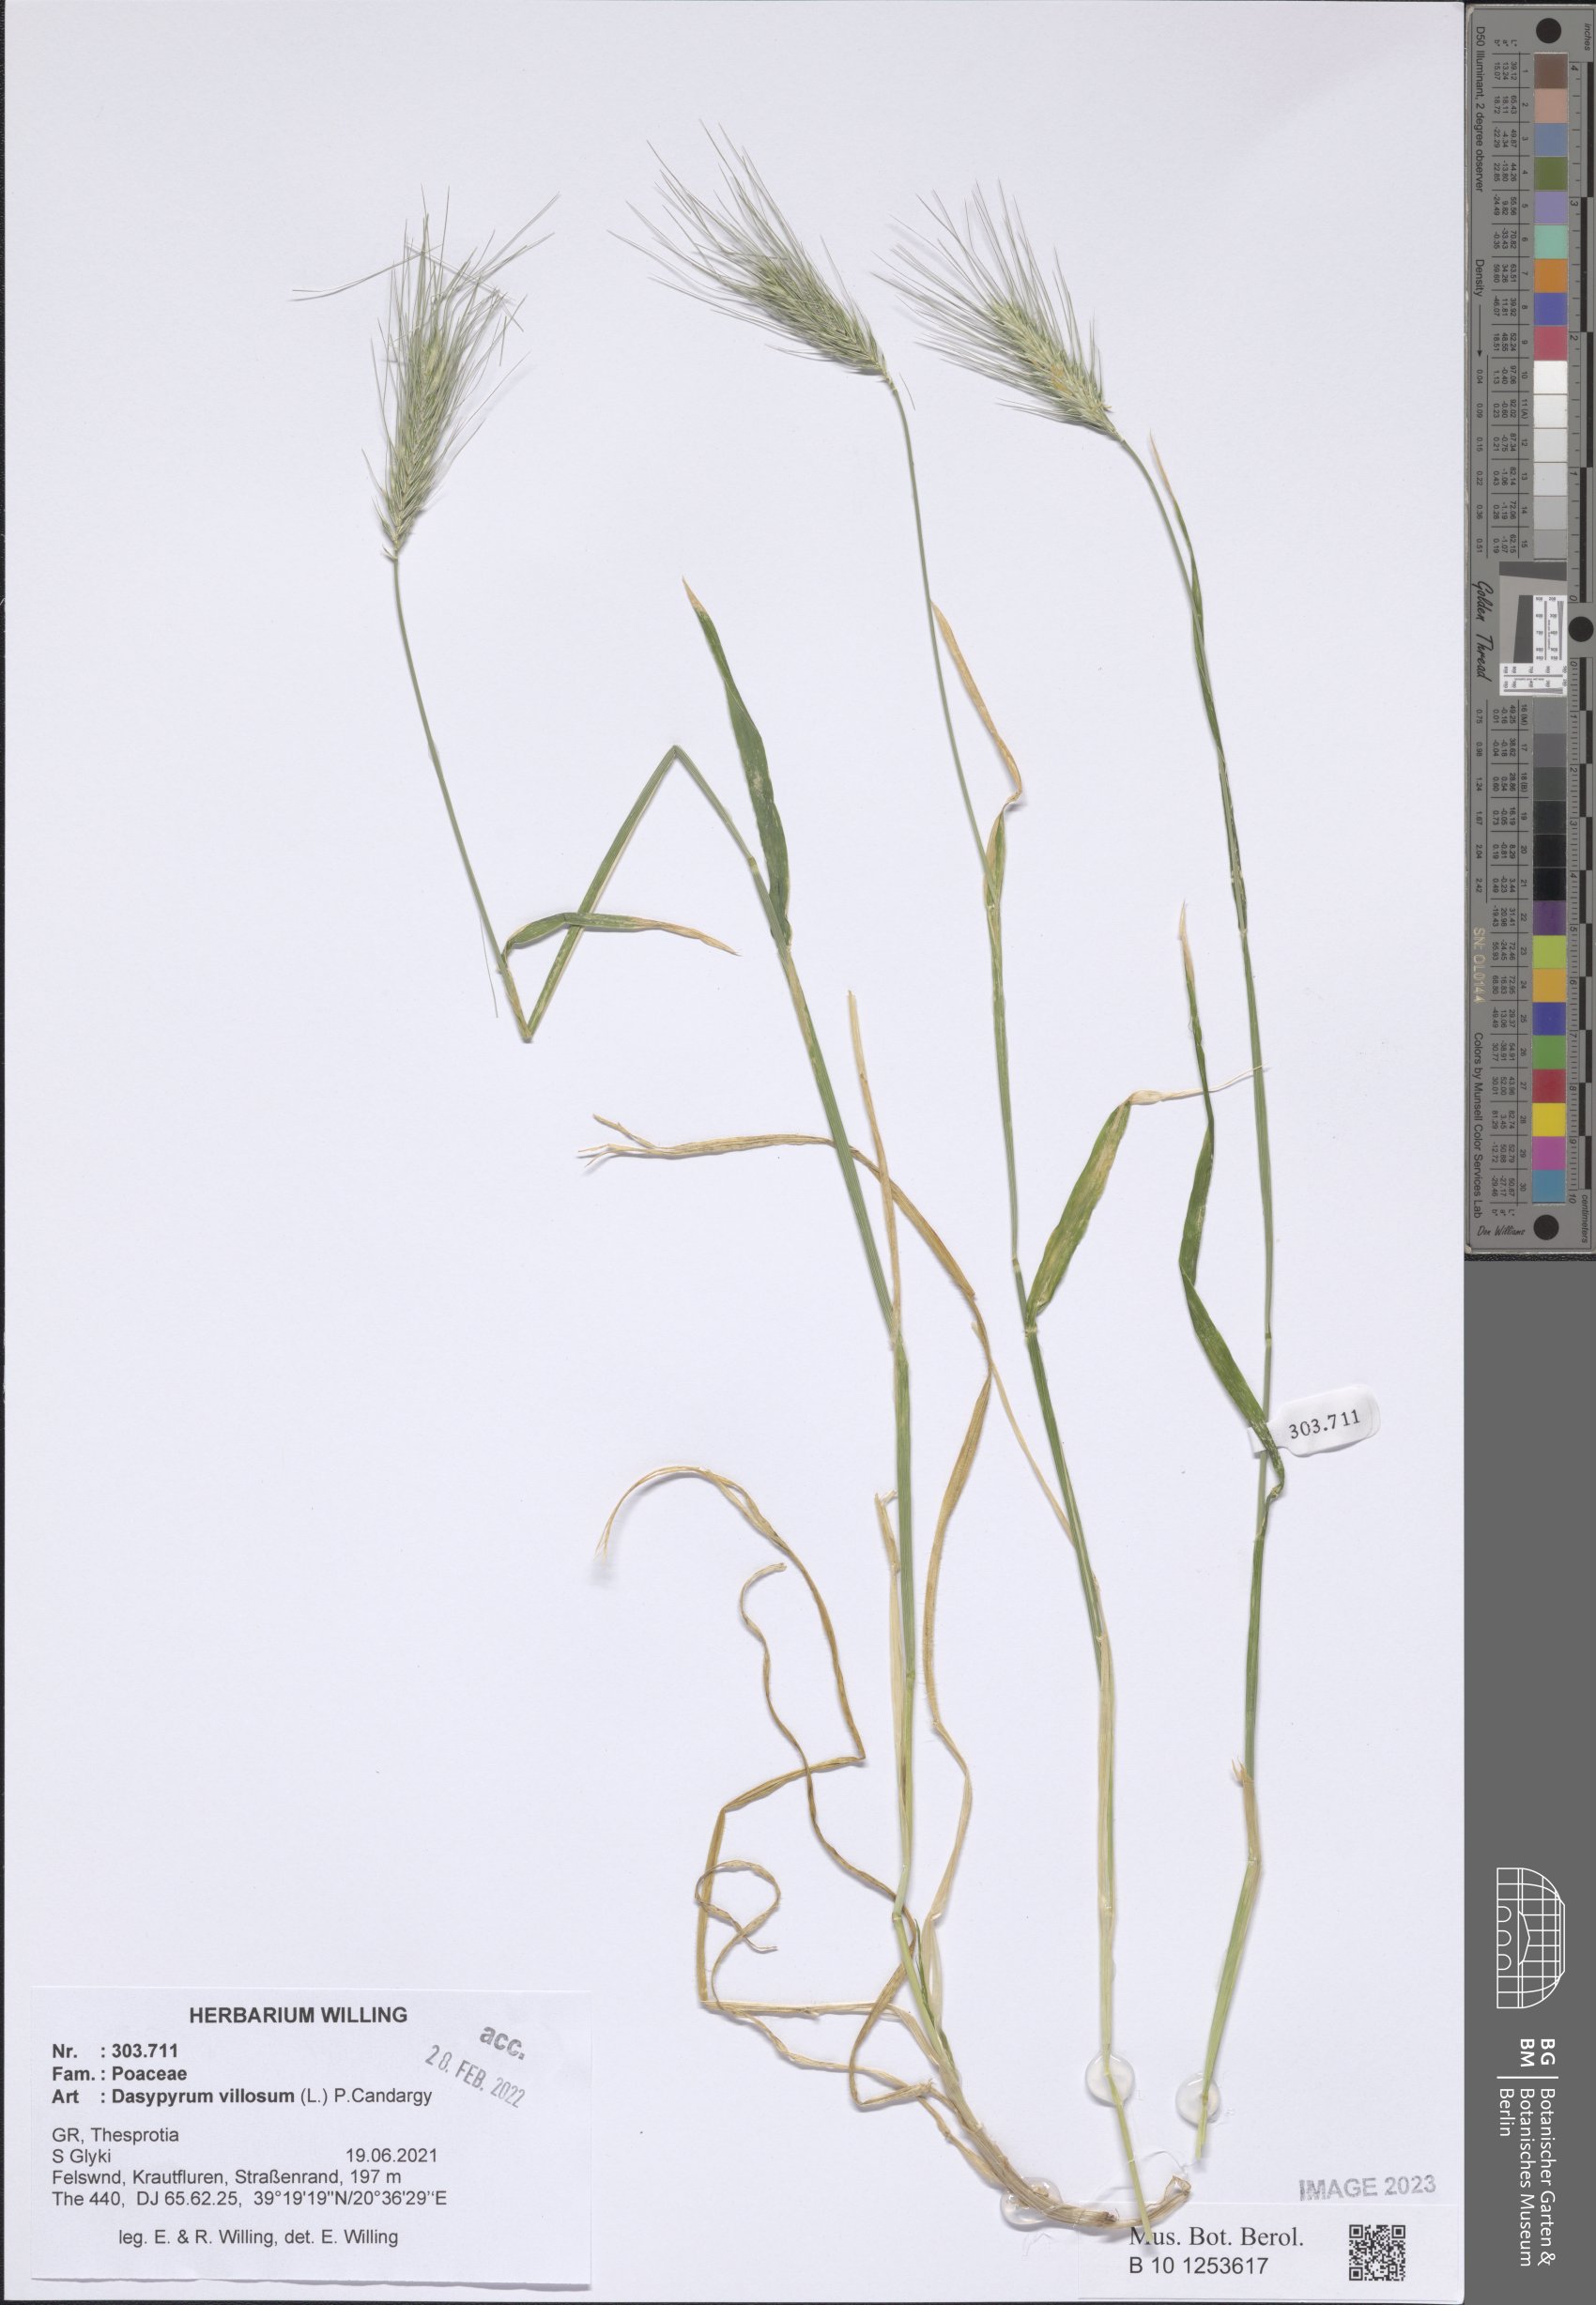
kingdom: Plantae
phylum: Tracheophyta
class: Liliopsida
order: Poales
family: Poaceae
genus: Dasypyrum
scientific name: Dasypyrum villosum
